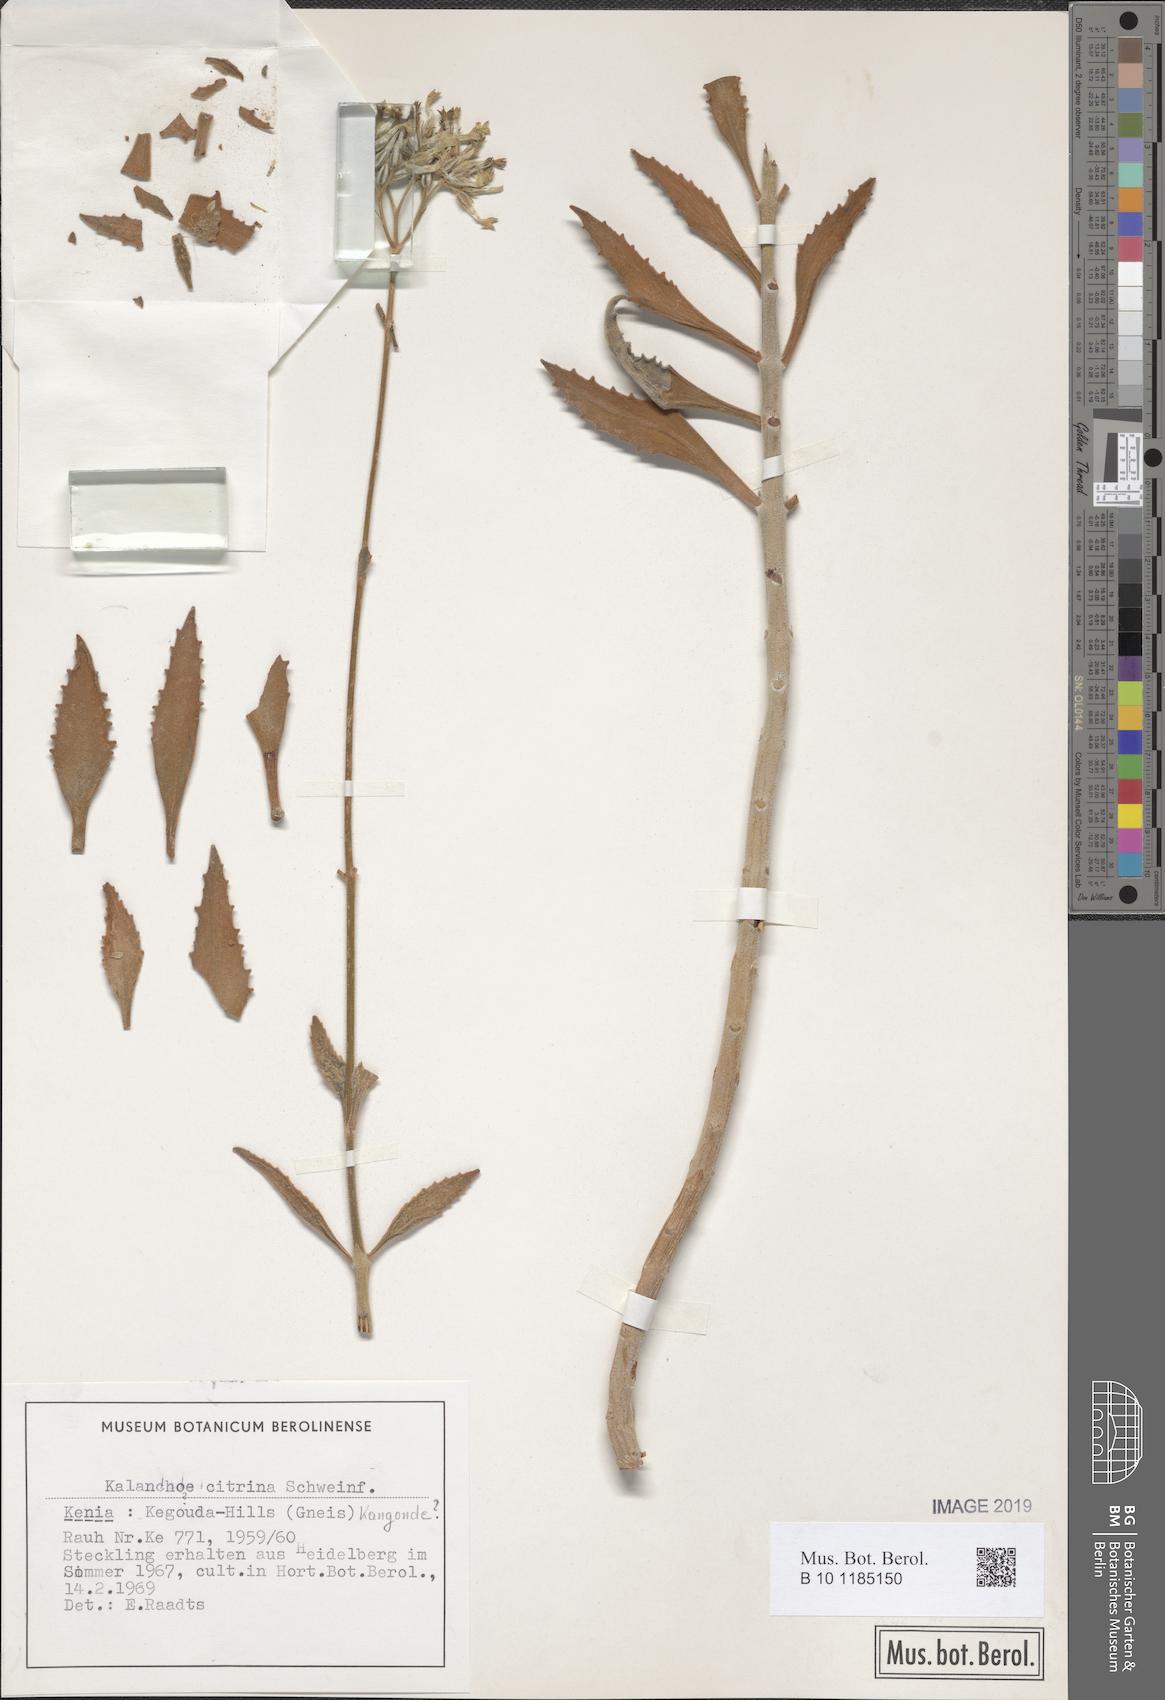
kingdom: Plantae
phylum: Tracheophyta
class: Magnoliopsida
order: Saxifragales
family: Crassulaceae
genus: Kalanchoe
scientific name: Kalanchoe citrina
